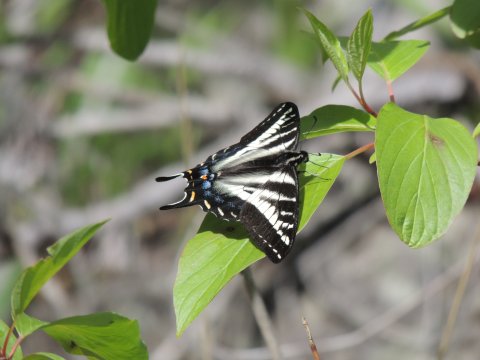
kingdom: Animalia
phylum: Arthropoda
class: Insecta
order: Lepidoptera
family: Papilionidae
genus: Pterourus
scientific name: Pterourus eurymedon
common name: Pale Swallowtail
